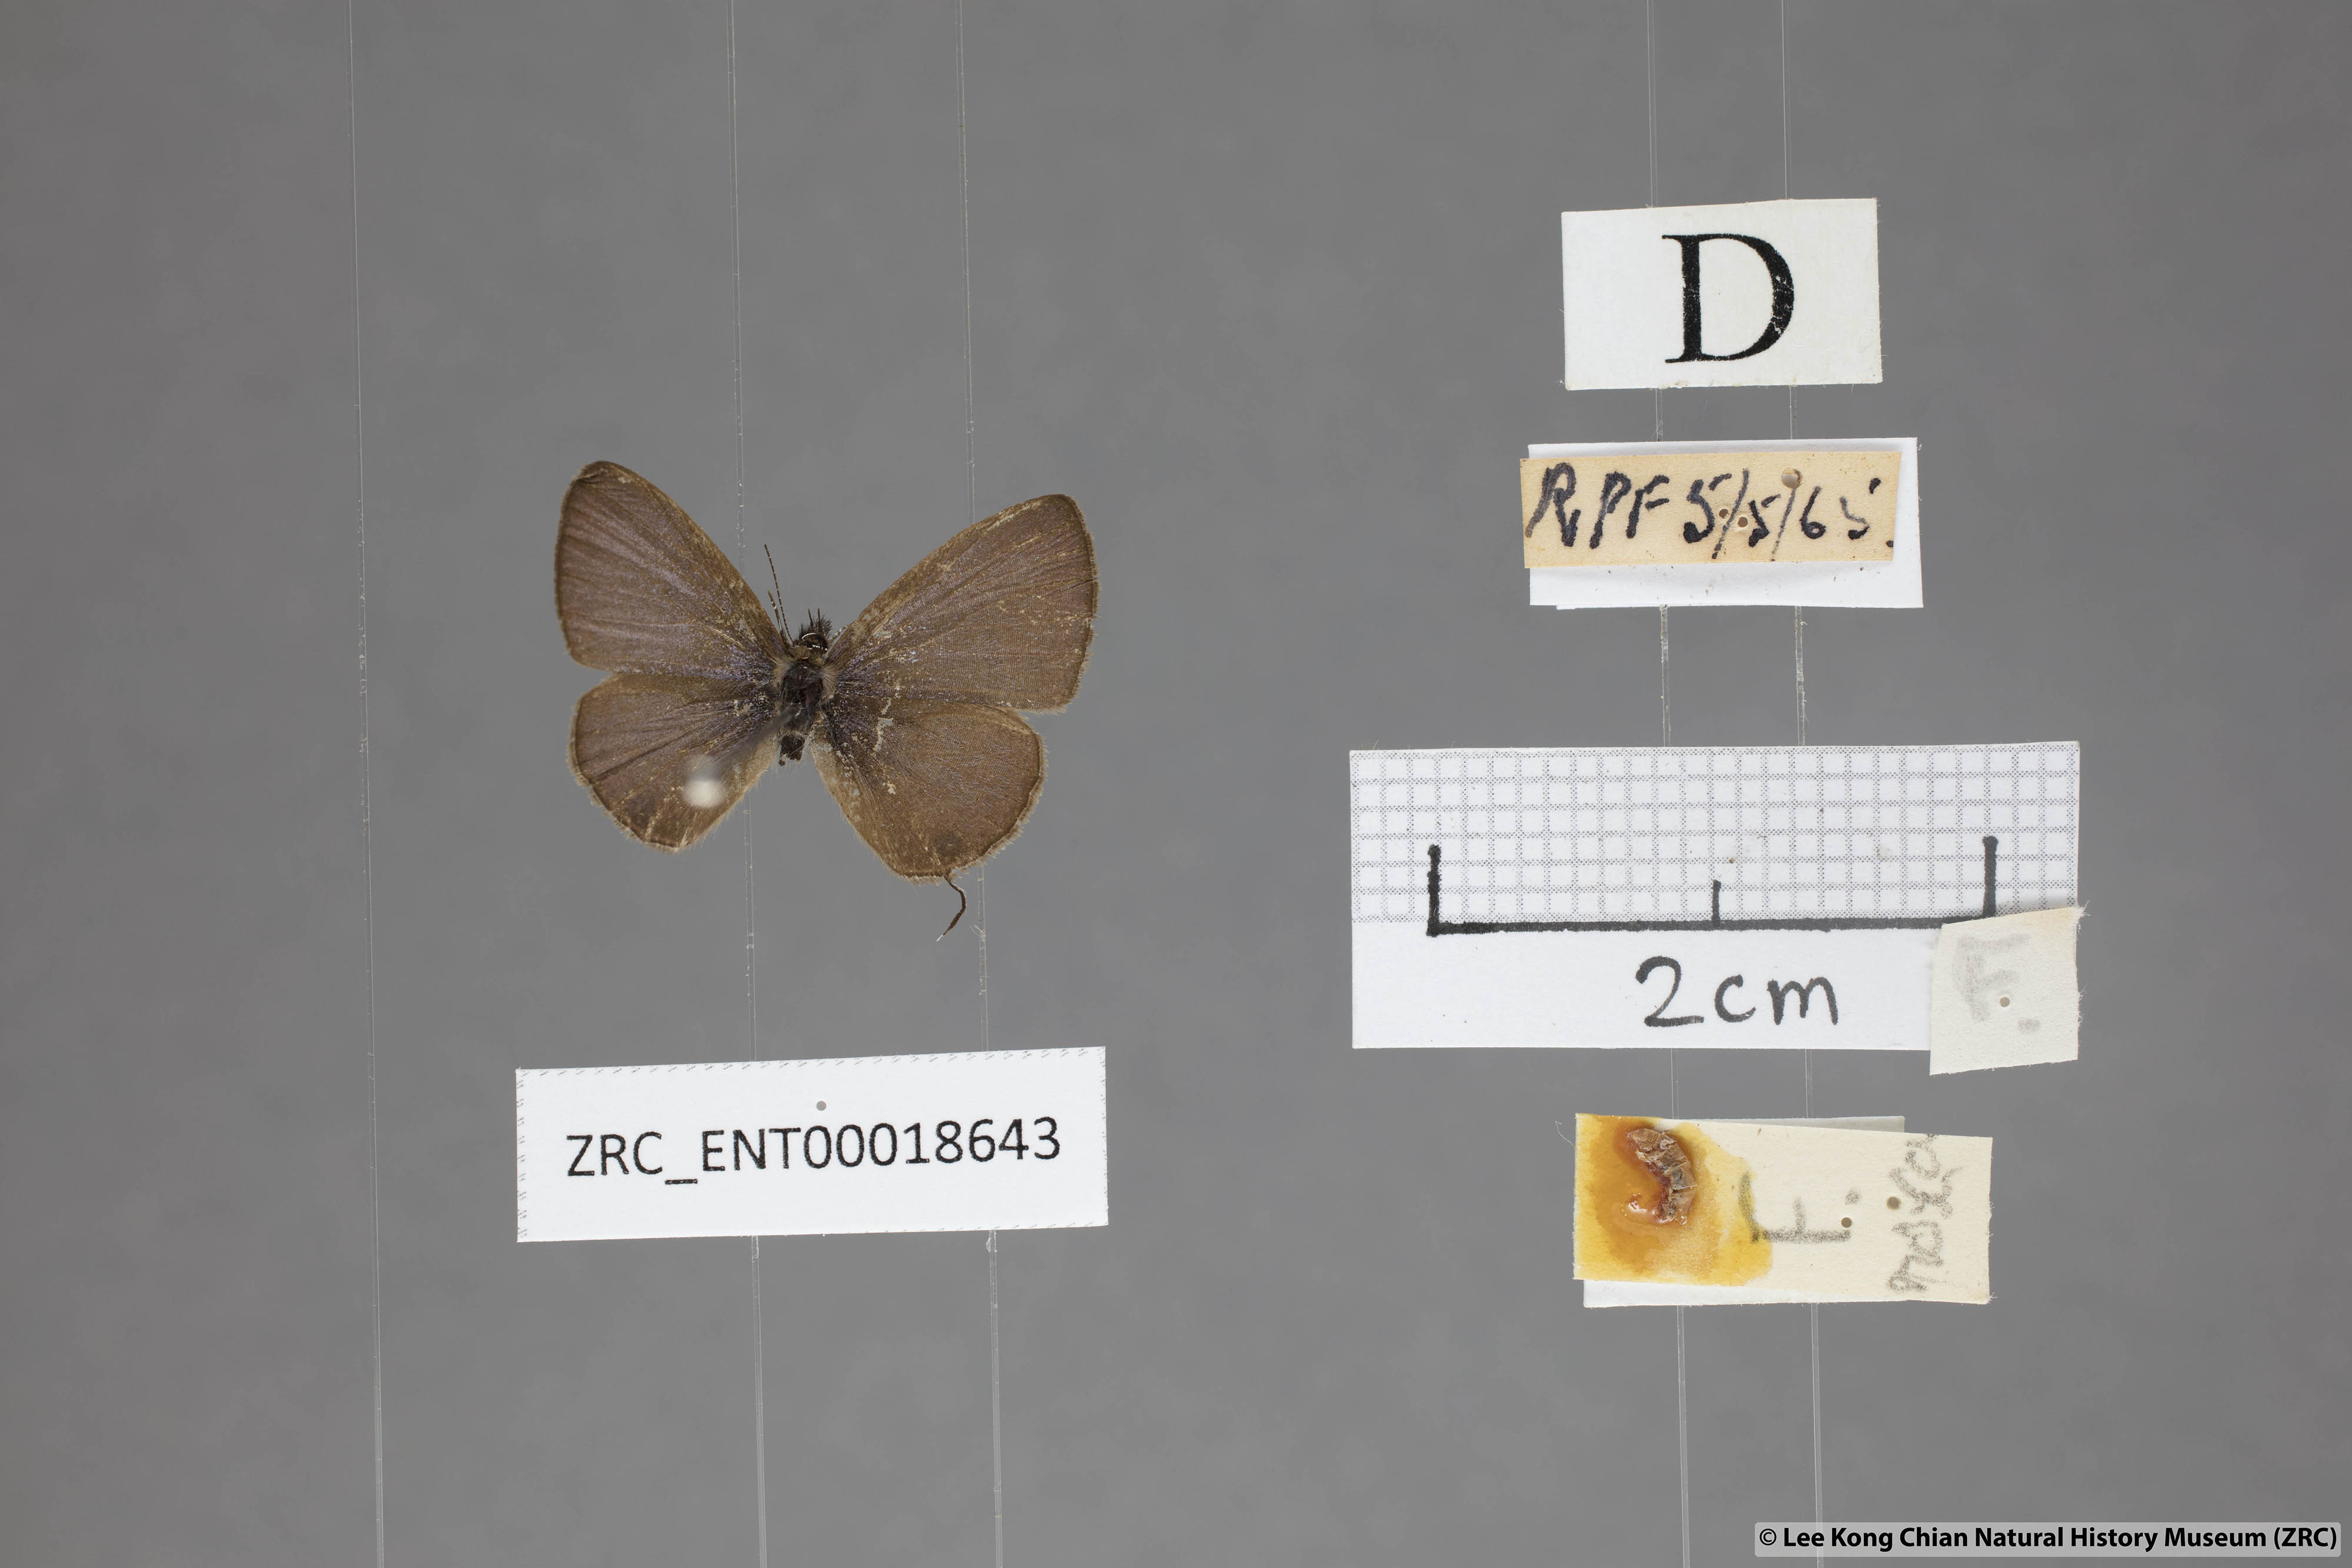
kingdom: Animalia
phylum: Arthropoda
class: Insecta
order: Lepidoptera
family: Lycaenidae
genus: Prosotas
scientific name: Prosotas nora
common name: Common line blue
